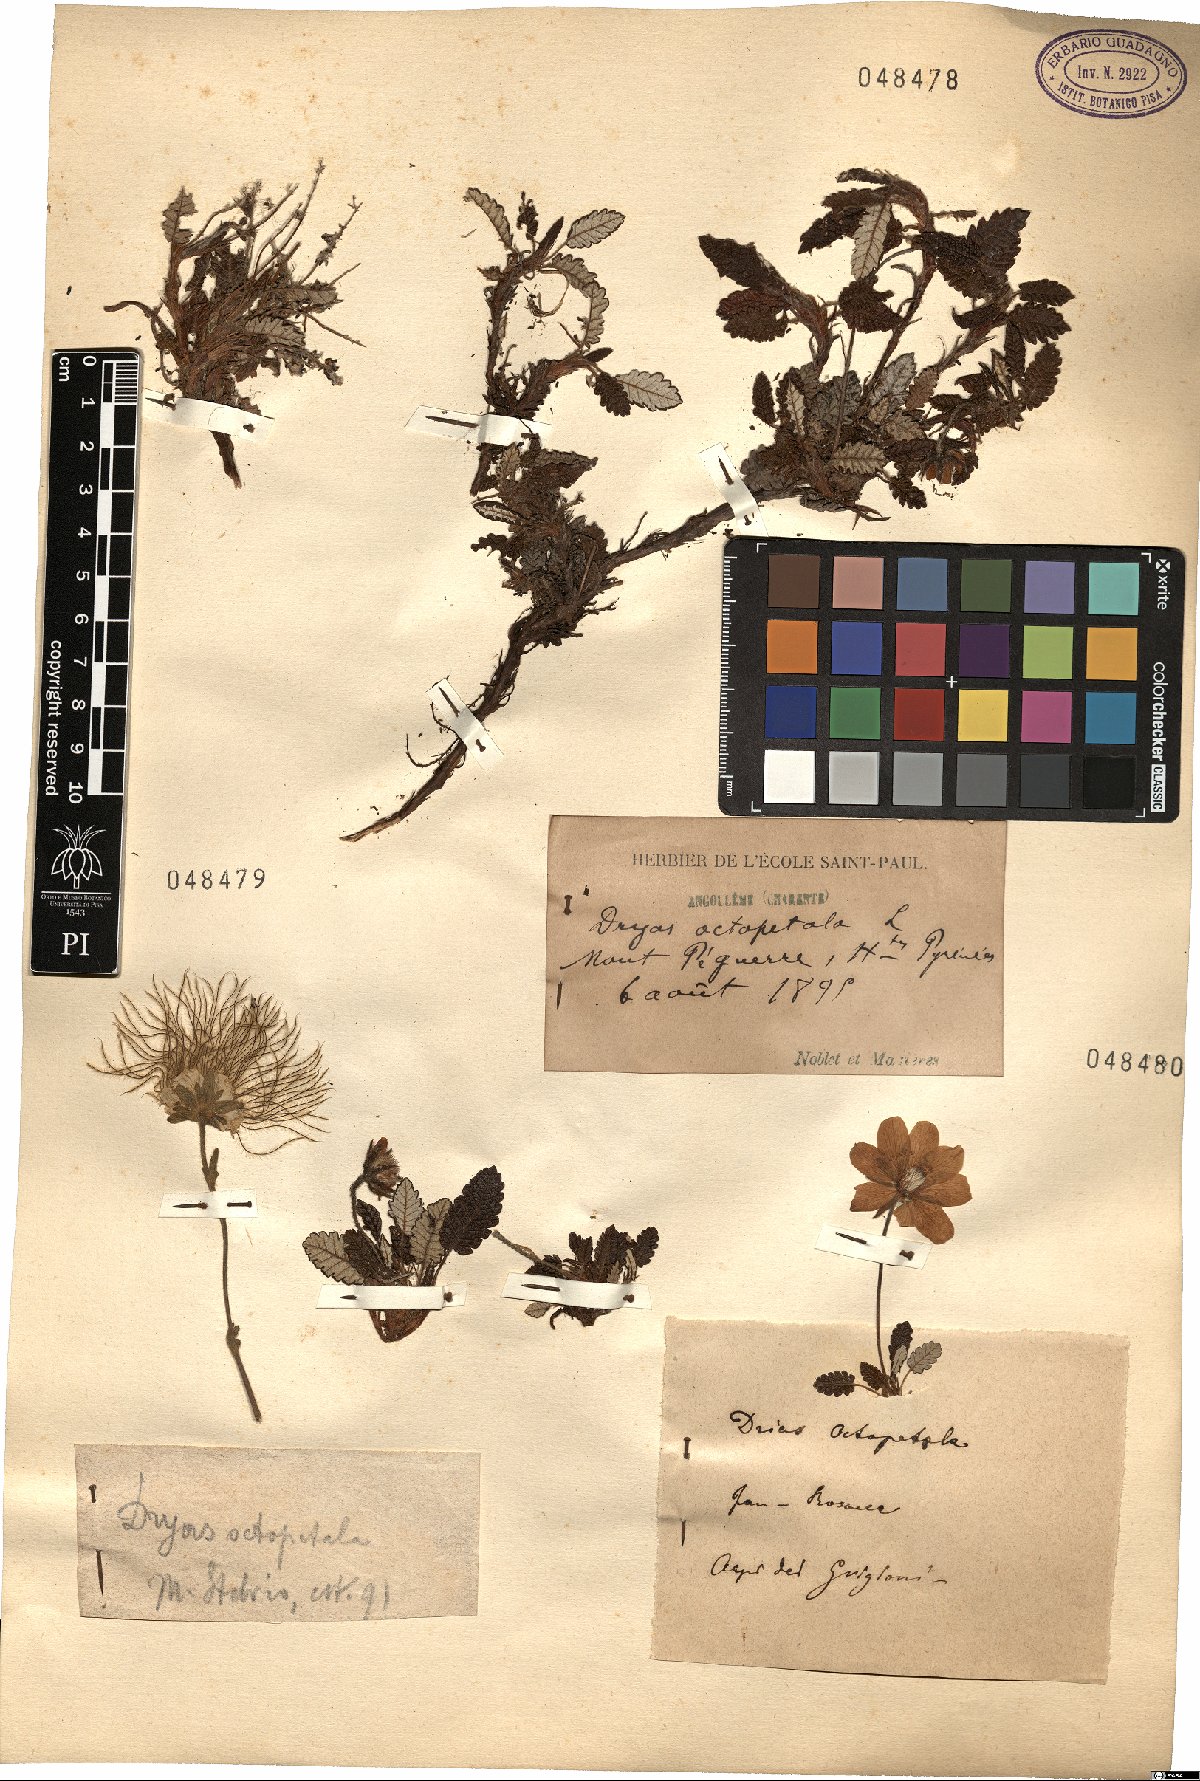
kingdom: Plantae
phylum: Tracheophyta
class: Magnoliopsida
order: Rosales
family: Rosaceae
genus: Dryas
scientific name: Dryas octopetala
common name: Eight-petal mountain-avens
